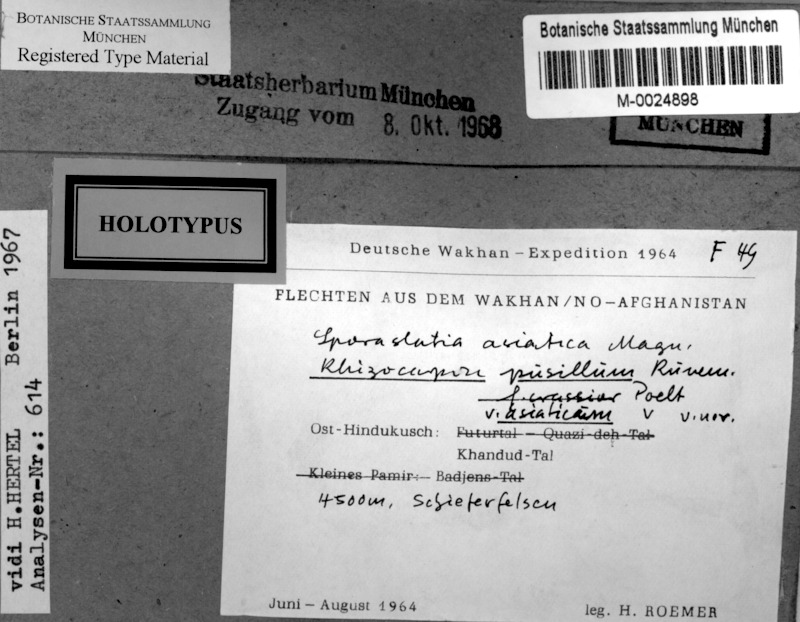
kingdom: Fungi
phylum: Ascomycota
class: Lecanoromycetes
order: Rhizocarpales
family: Rhizocarpaceae
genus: Rhizocarpon
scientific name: Rhizocarpon
